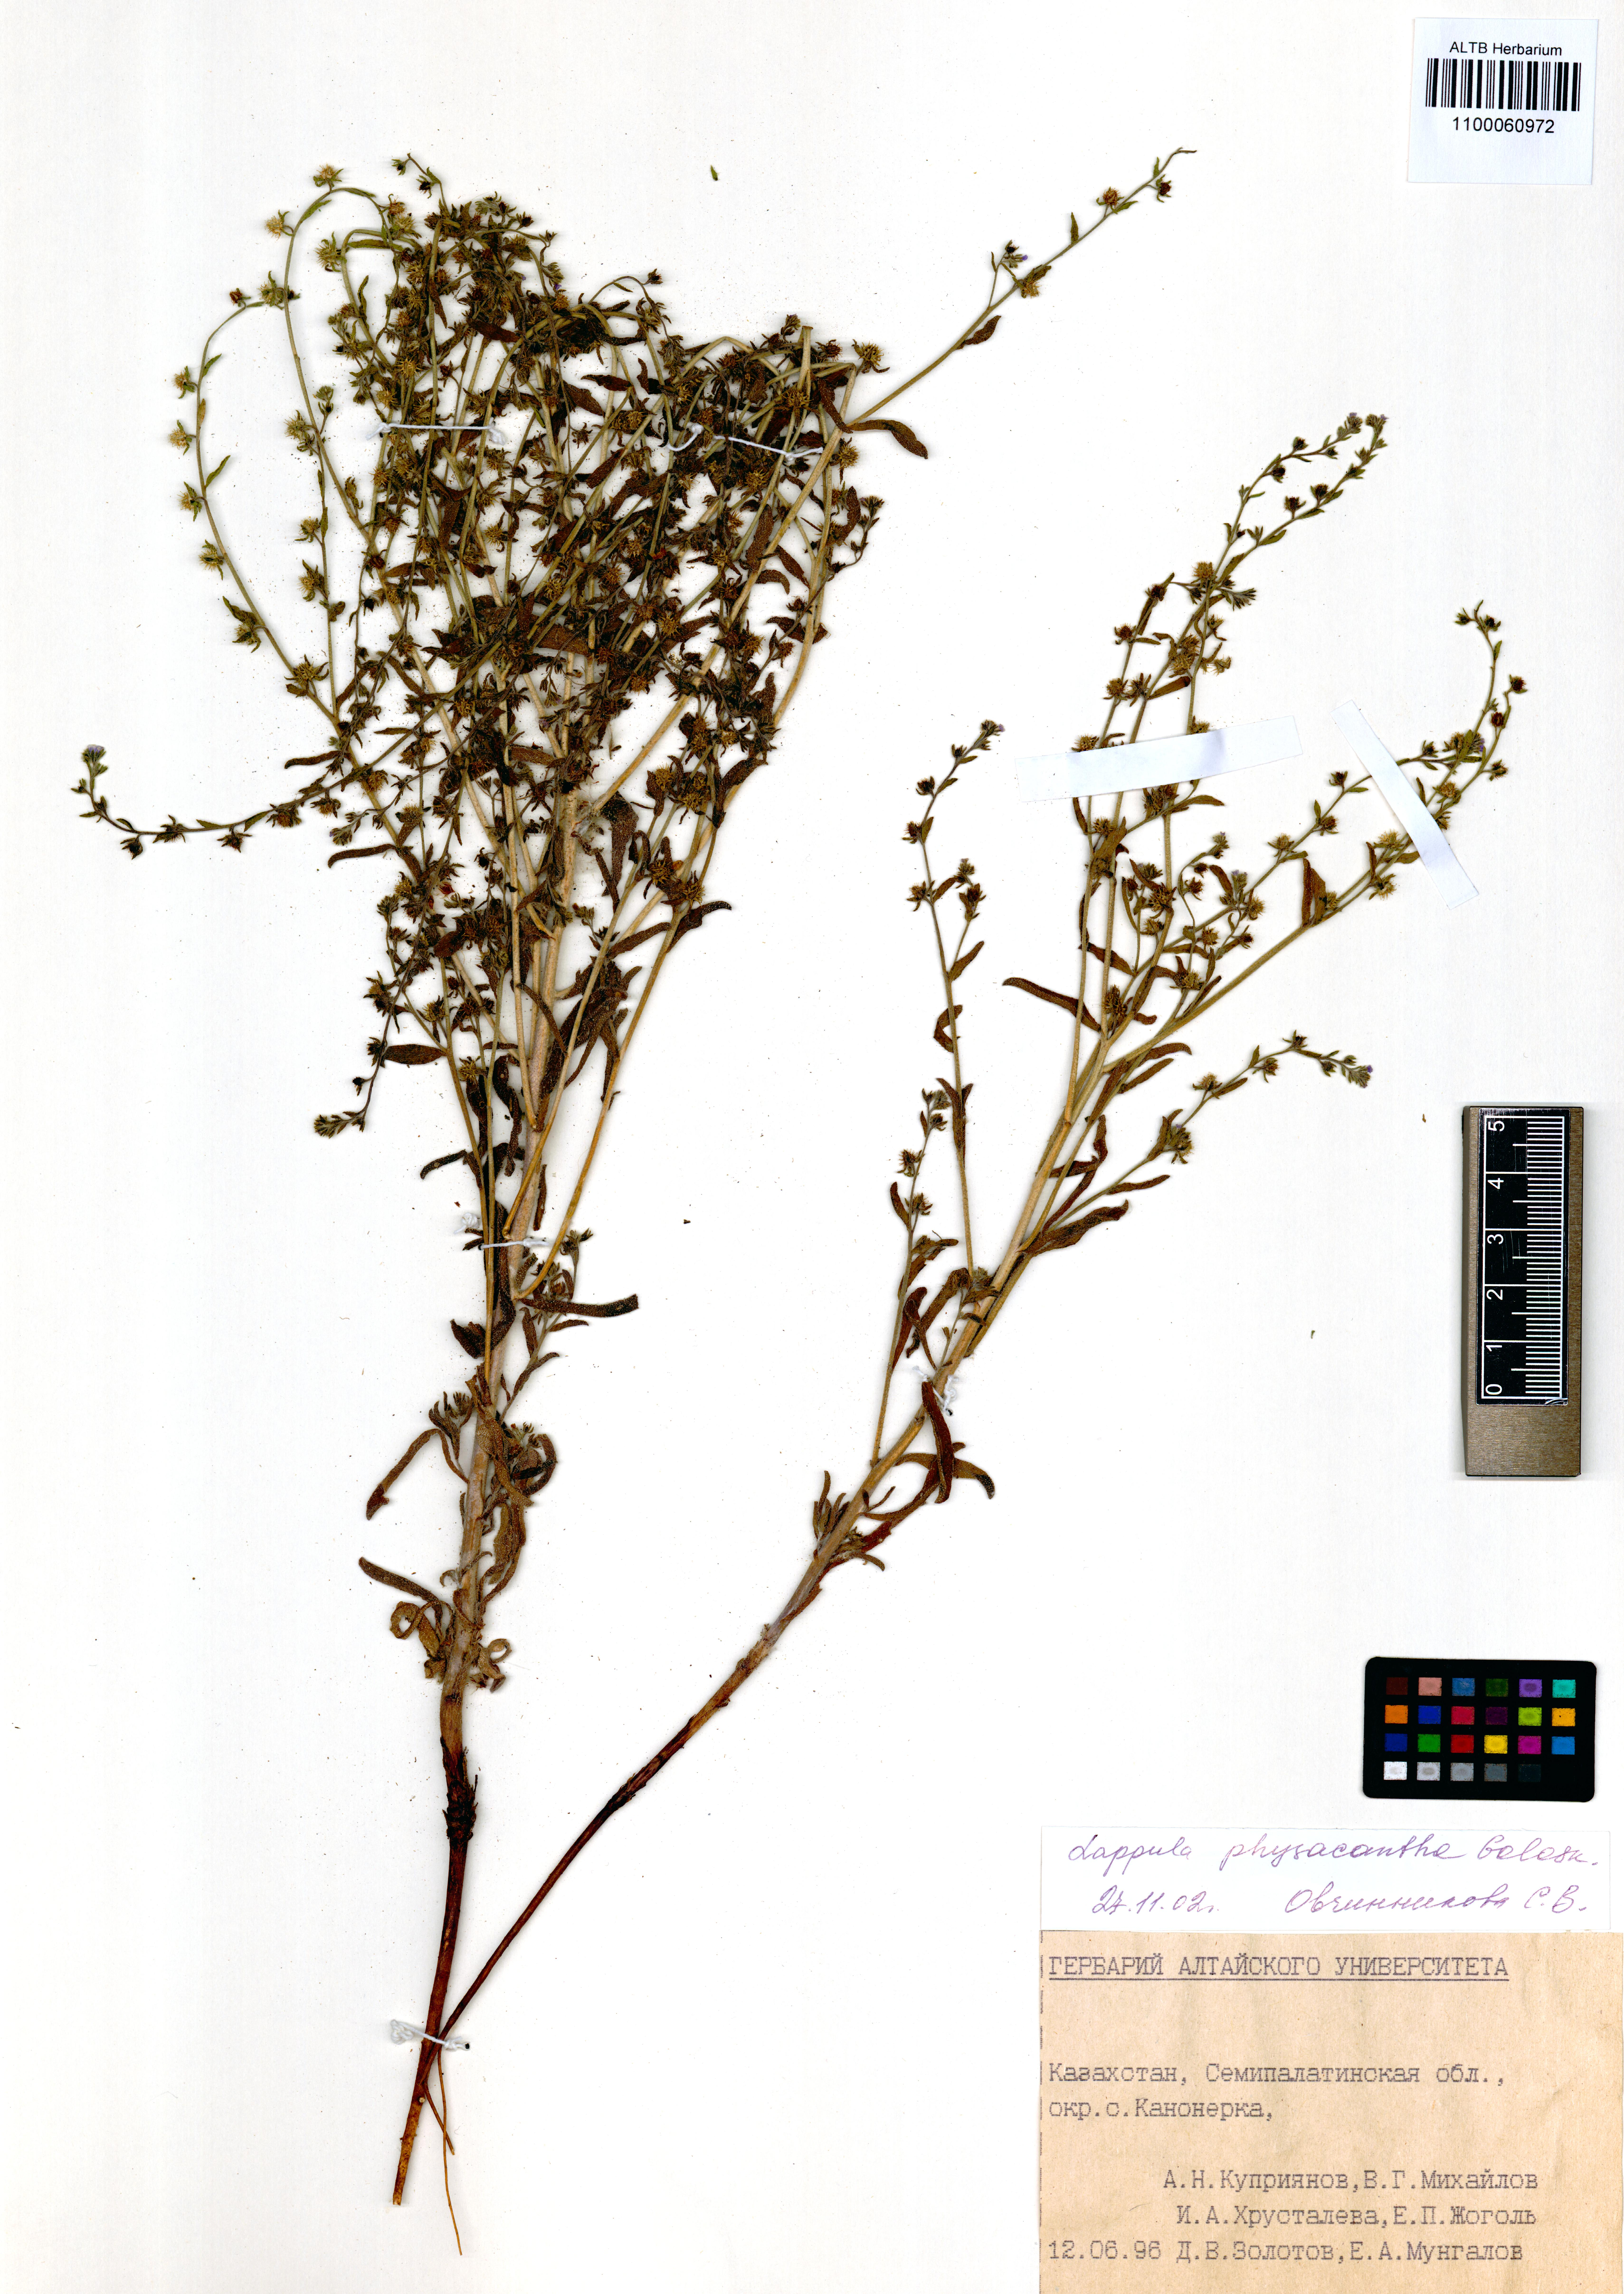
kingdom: Plantae
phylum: Tracheophyta
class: Magnoliopsida
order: Boraginales
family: Boraginaceae
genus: Lappula
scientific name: Lappula physacantha
